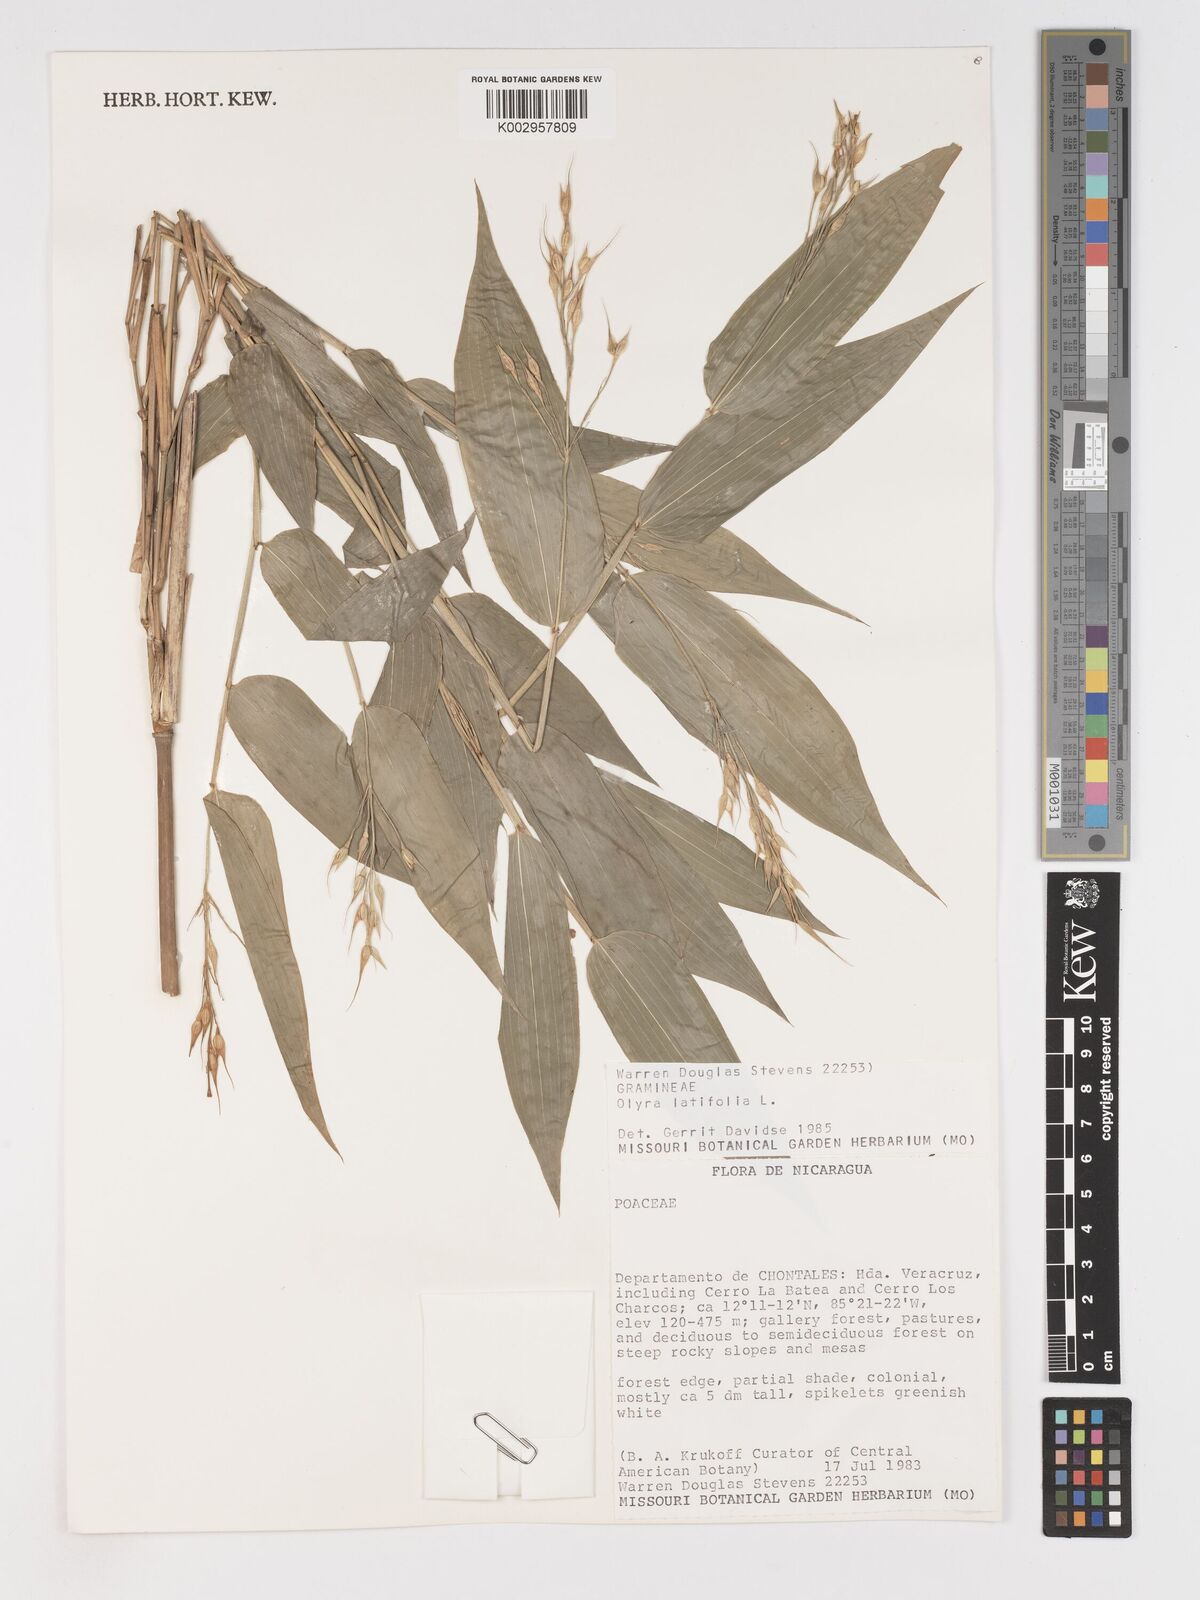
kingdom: Plantae
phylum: Tracheophyta
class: Liliopsida
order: Poales
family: Poaceae
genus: Olyra
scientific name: Olyra latifolia
